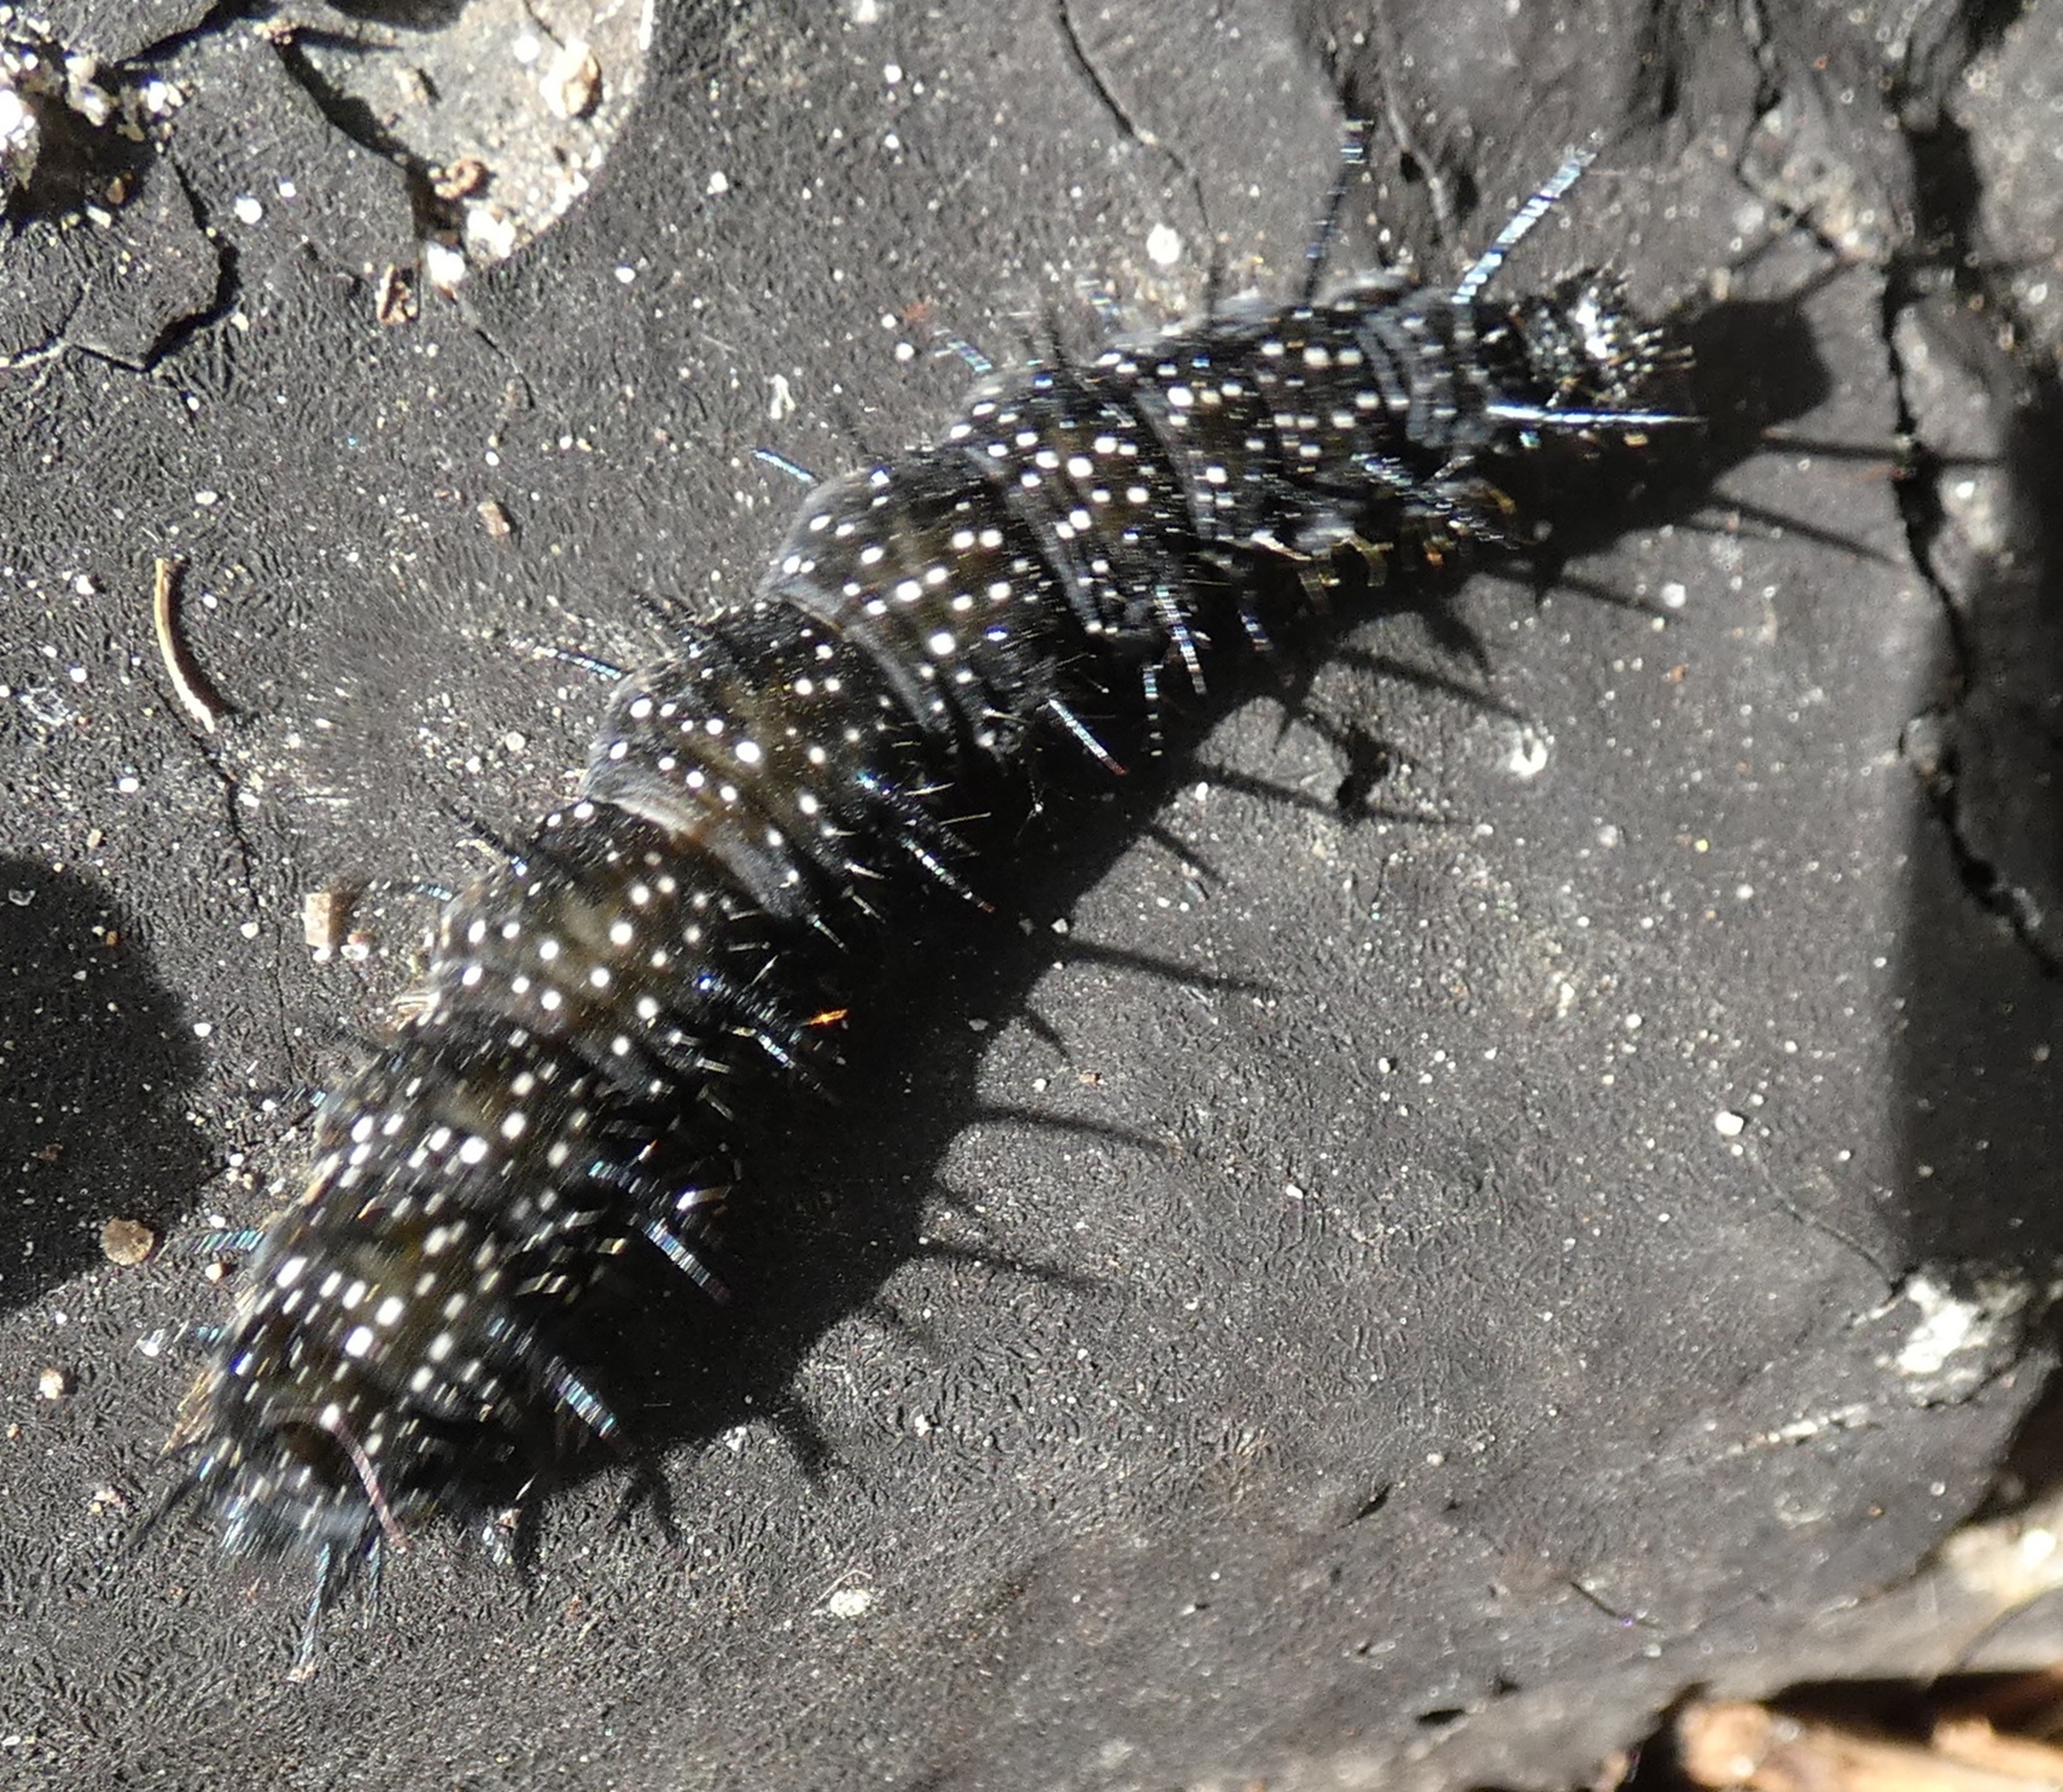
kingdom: Animalia
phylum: Arthropoda
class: Insecta
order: Lepidoptera
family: Nymphalidae
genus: Aglais
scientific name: Aglais io
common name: Dagpåfugleøje
